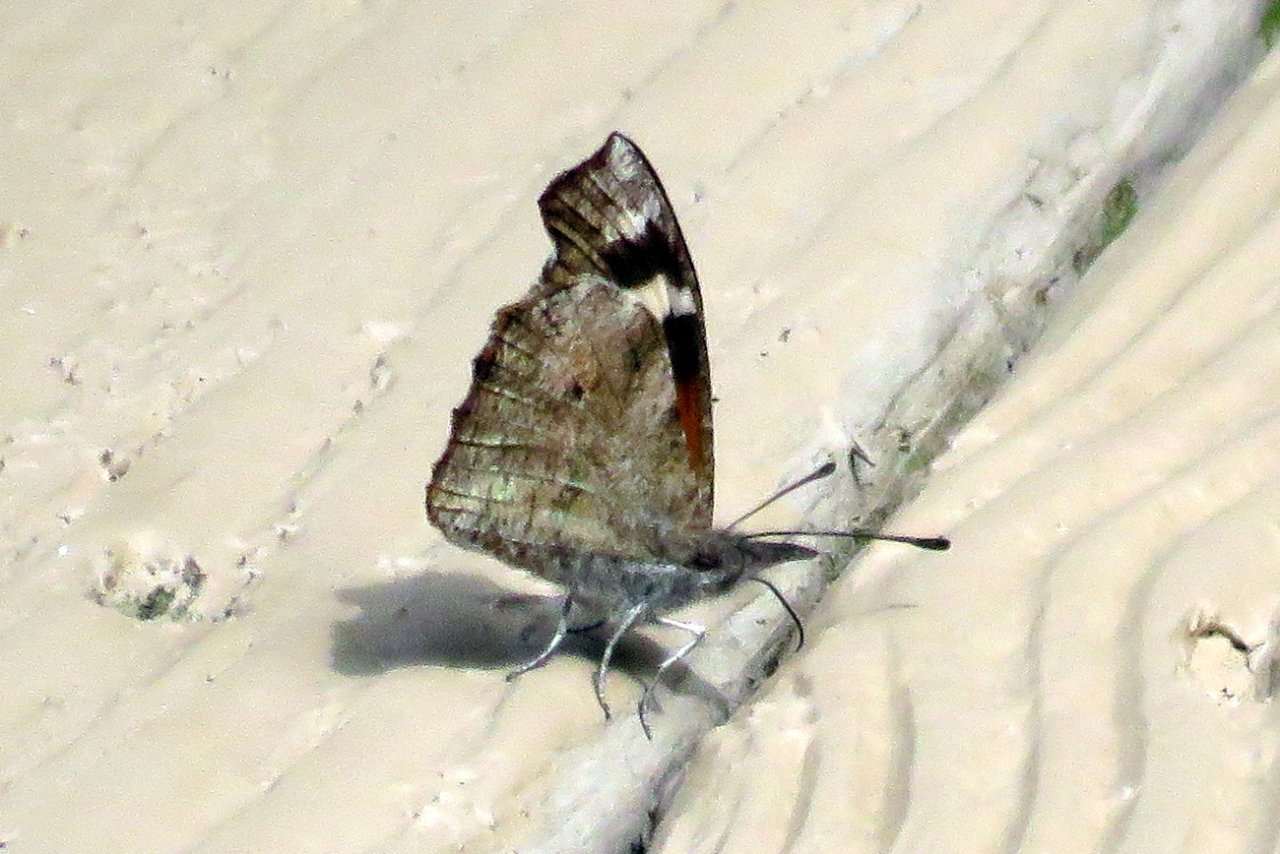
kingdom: Animalia
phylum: Arthropoda
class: Insecta
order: Lepidoptera
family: Nymphalidae
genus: Libytheana
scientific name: Libytheana carinenta
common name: American Snout
